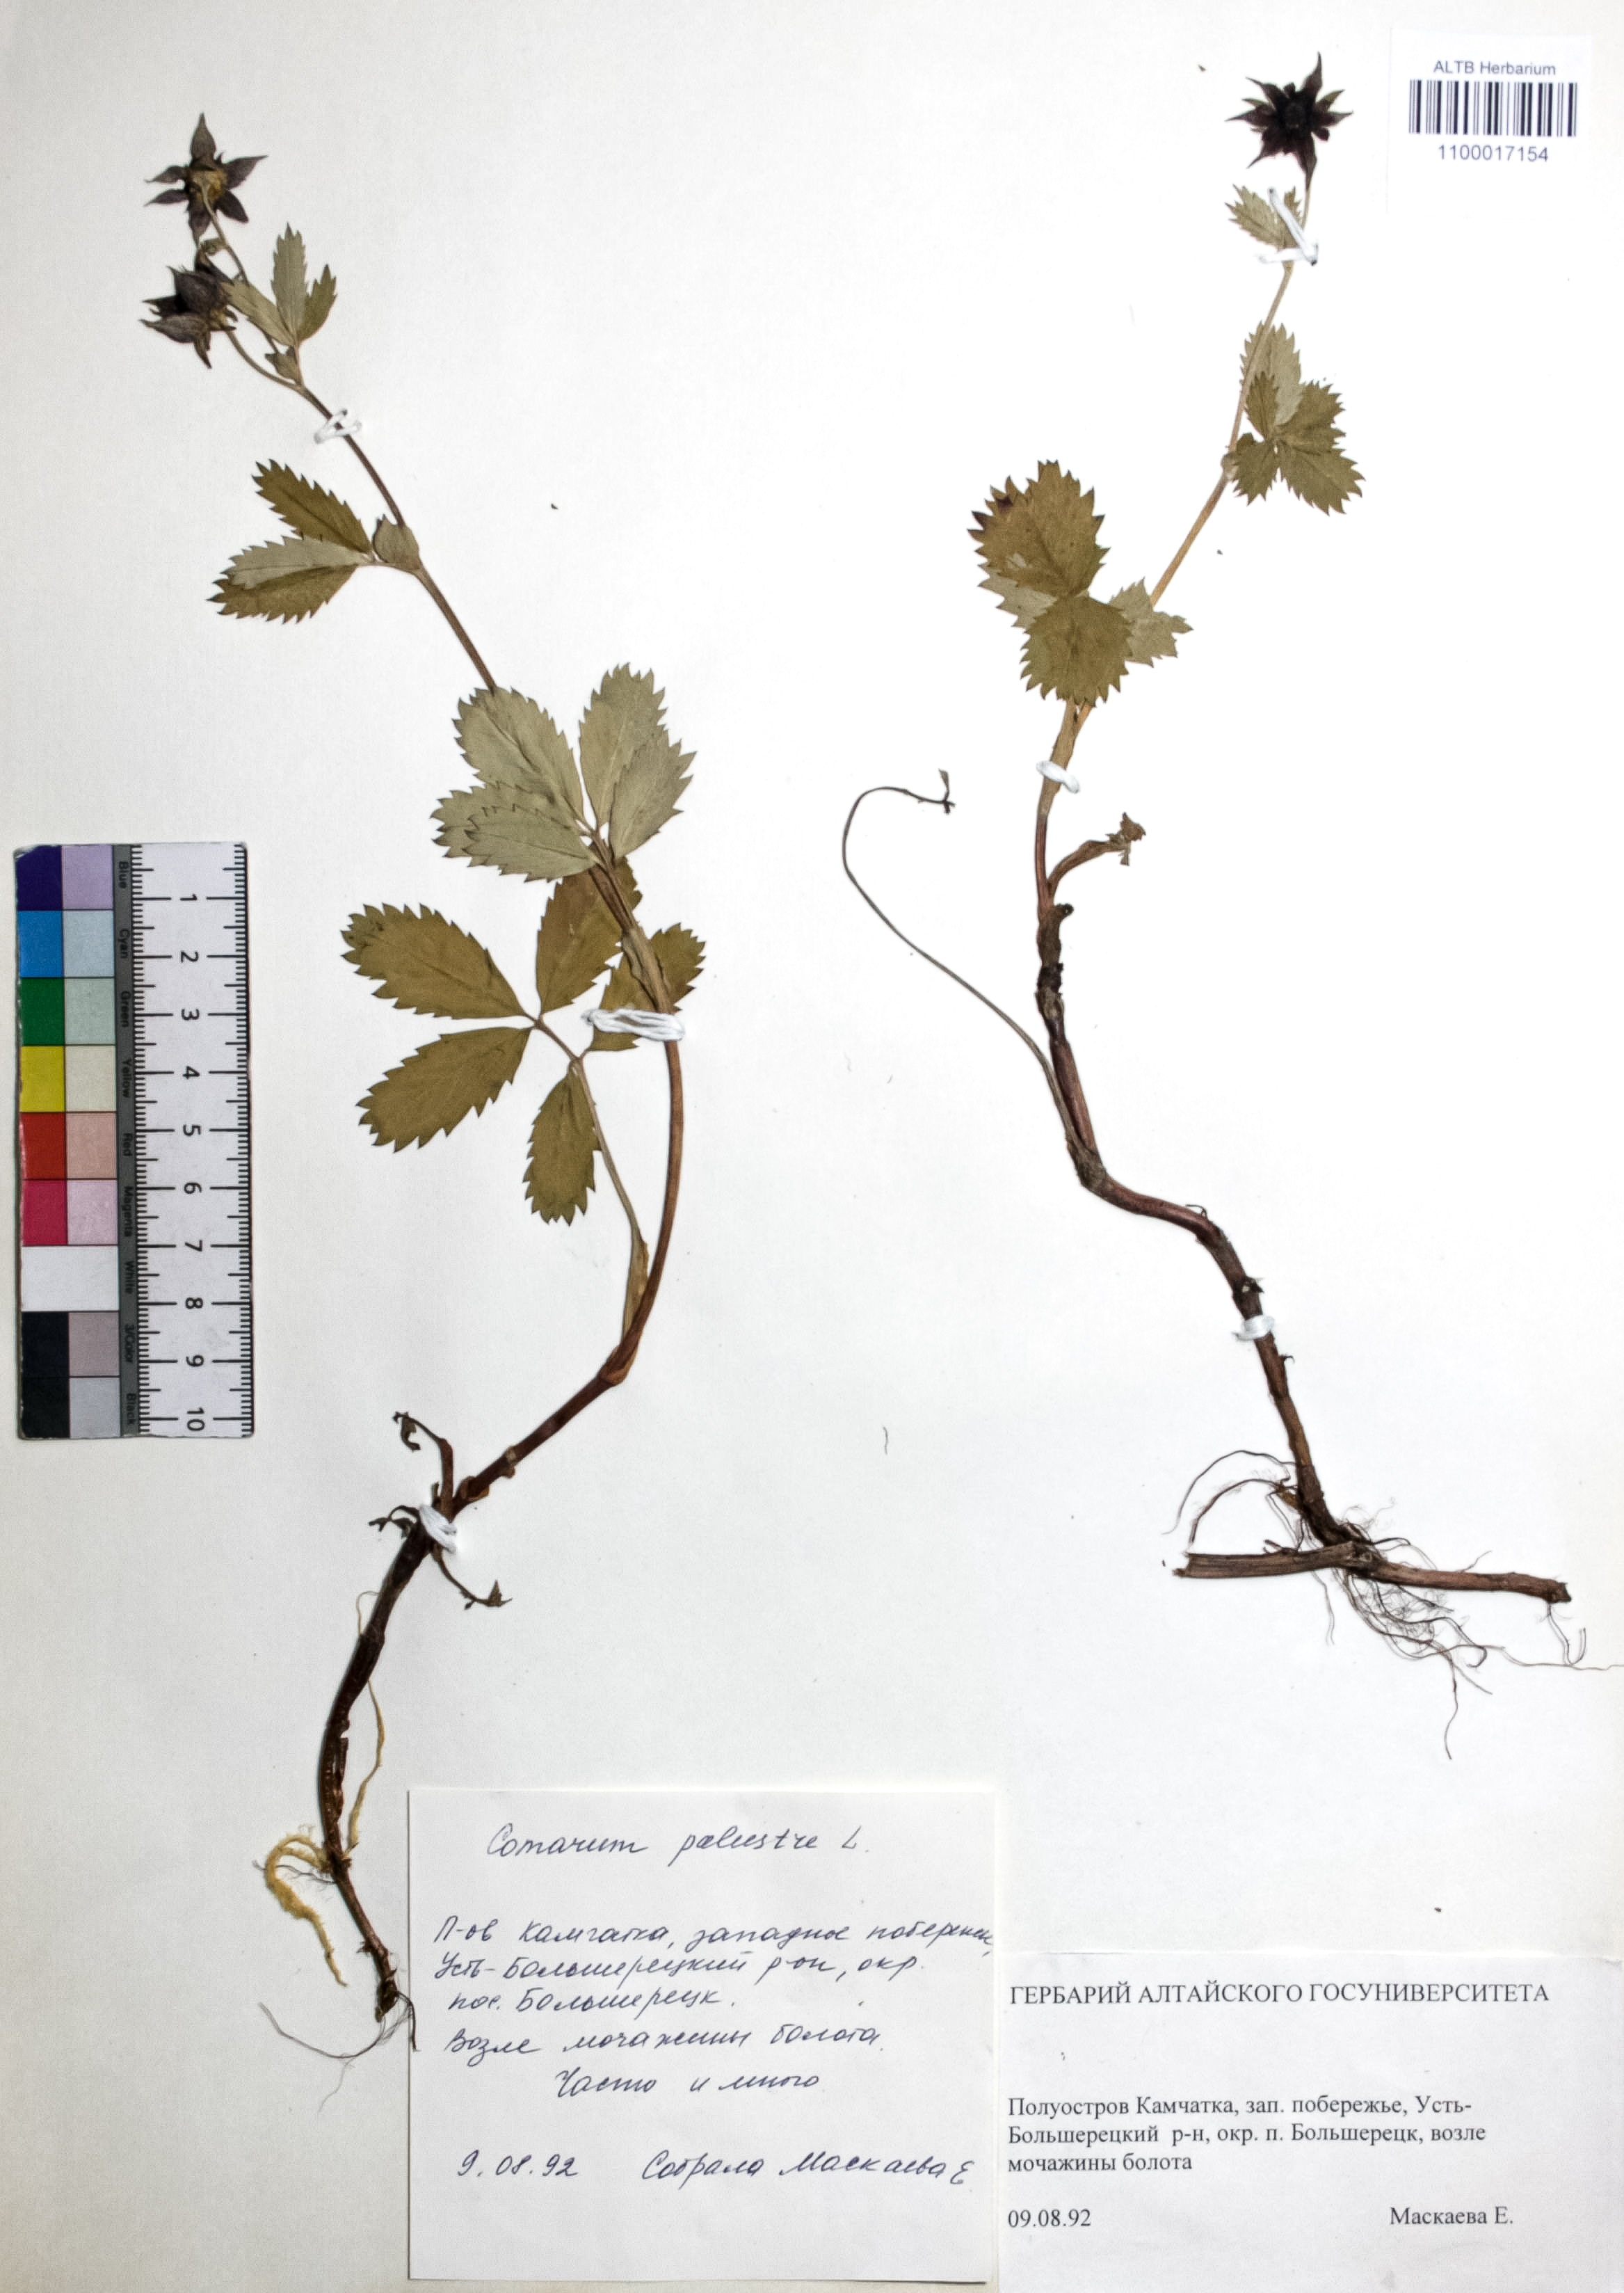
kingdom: Plantae
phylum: Tracheophyta
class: Magnoliopsida
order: Rosales
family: Rosaceae
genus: Comarum
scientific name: Comarum palustre
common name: Marsh cinquefoil
